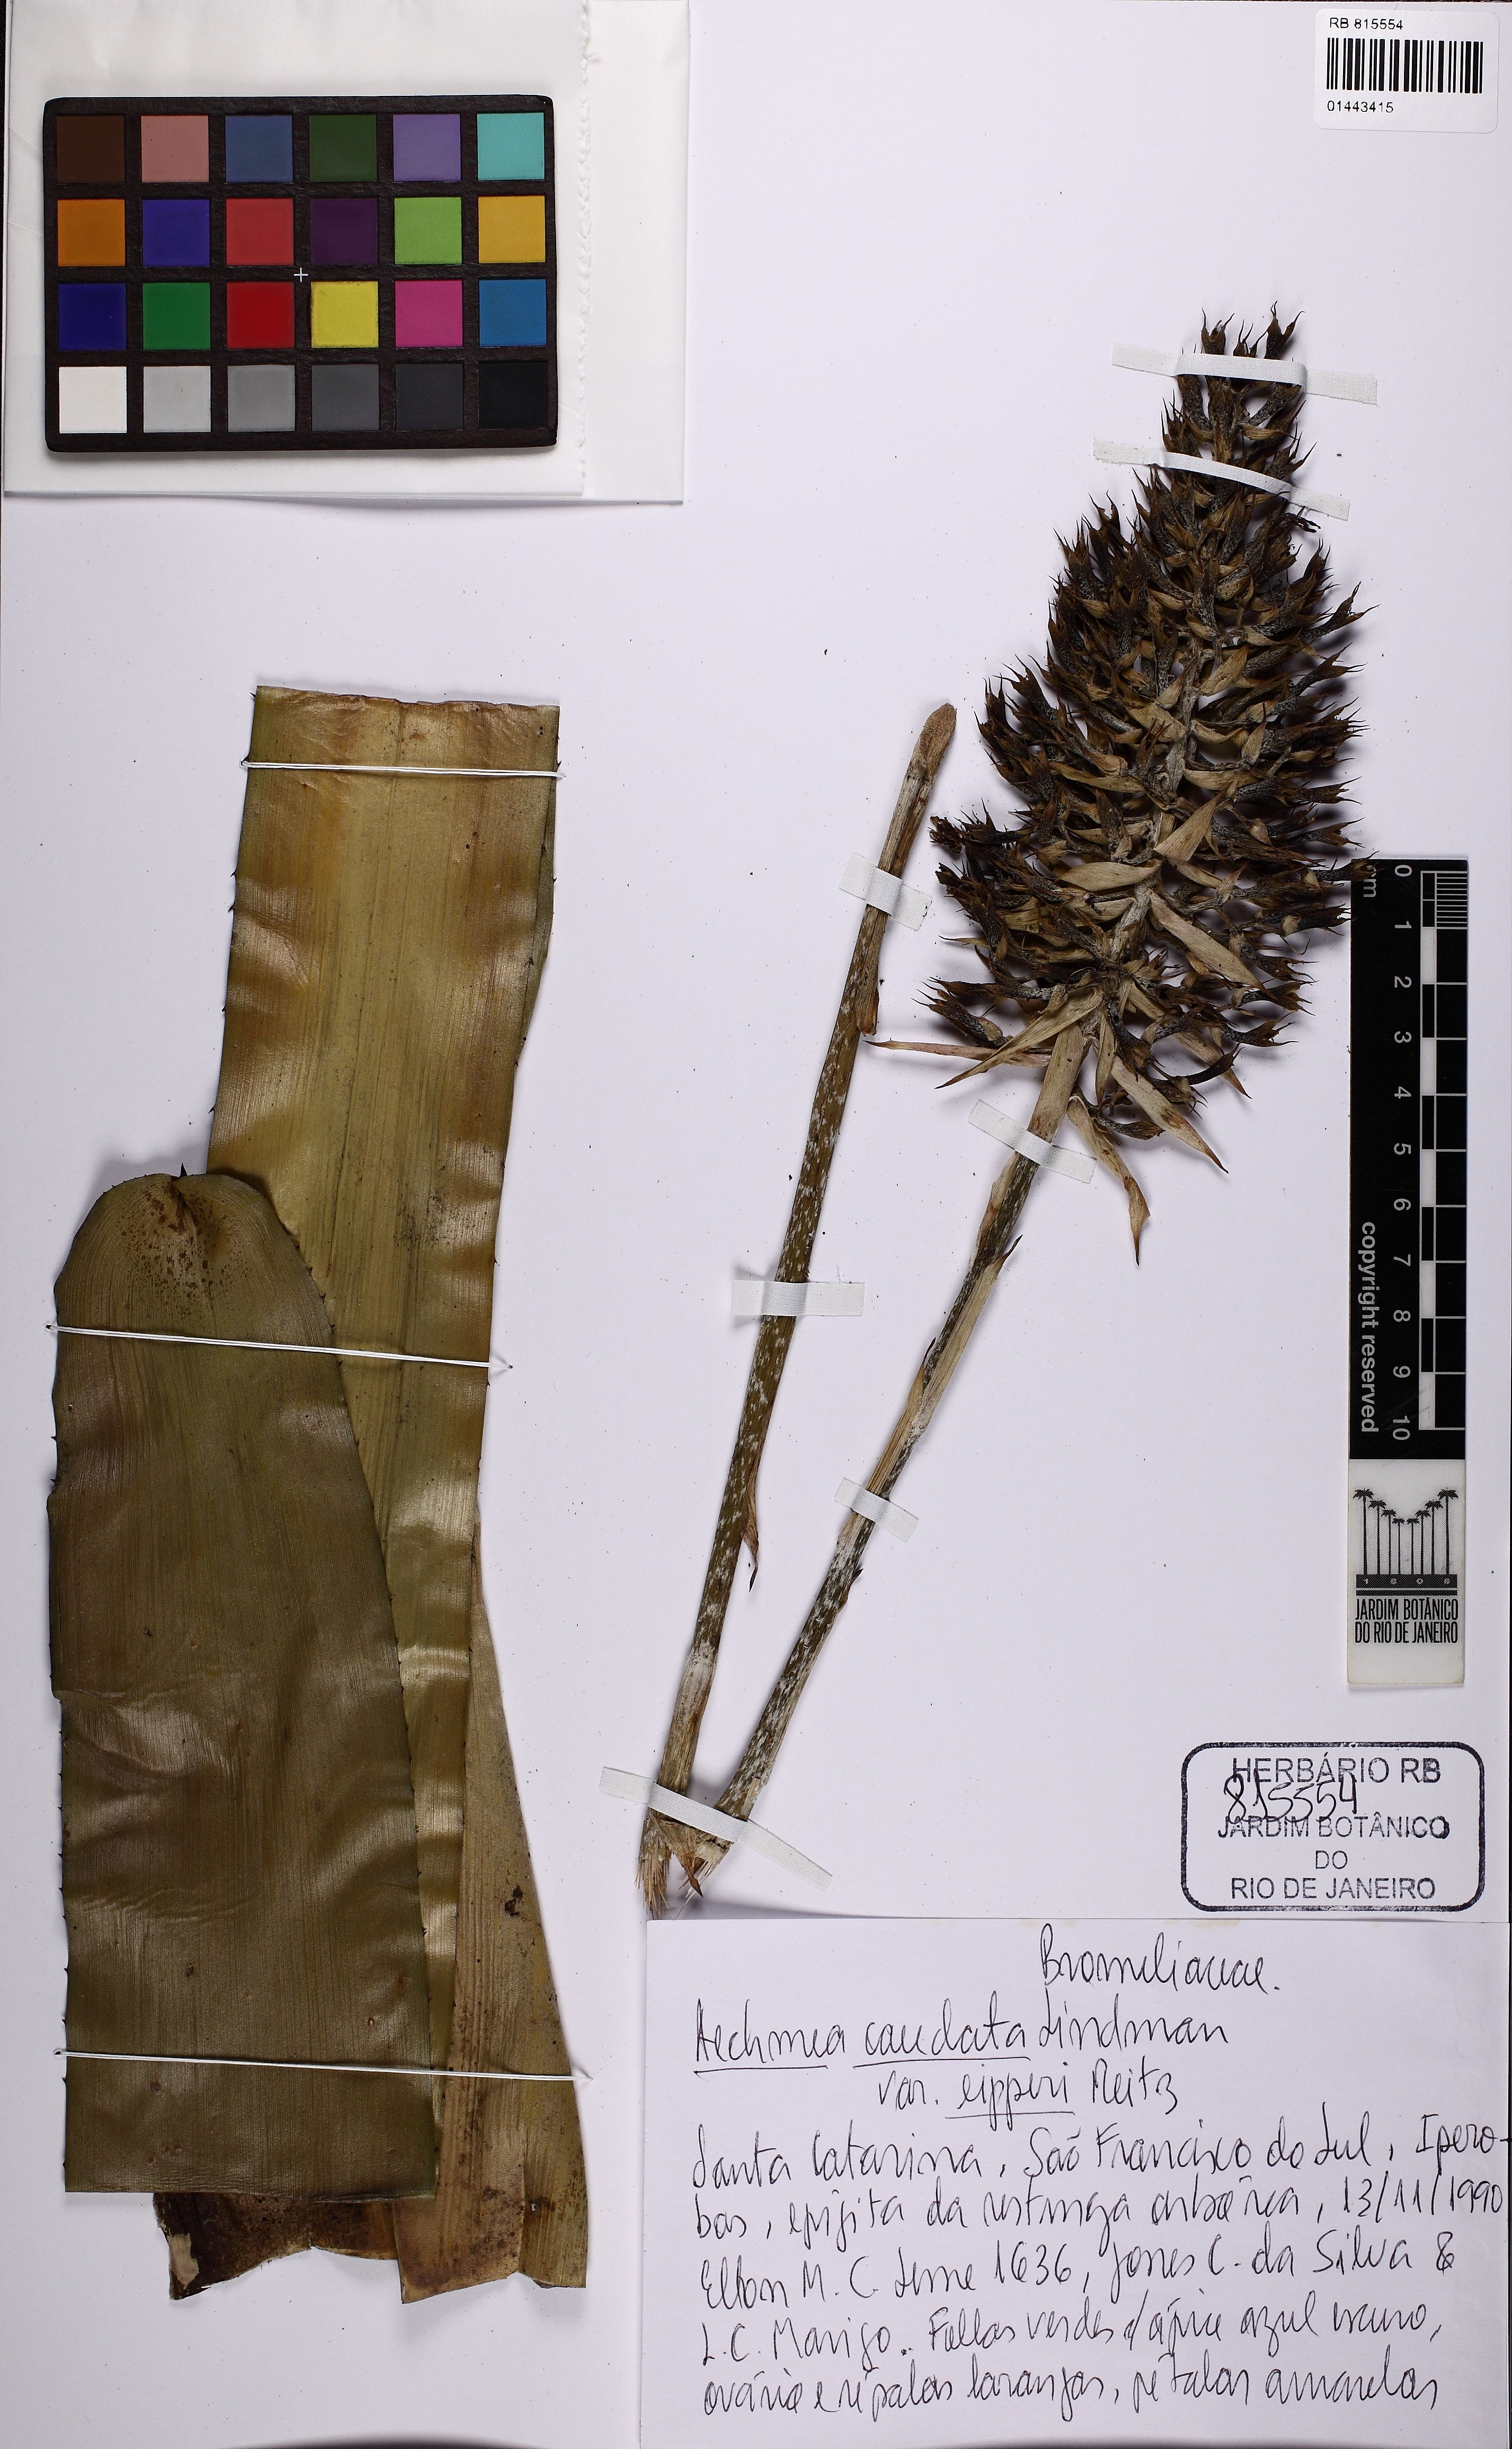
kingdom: Plantae
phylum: Tracheophyta
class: Liliopsida
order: Poales
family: Bromeliaceae
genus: Aechmea
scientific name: Aechmea organensis
